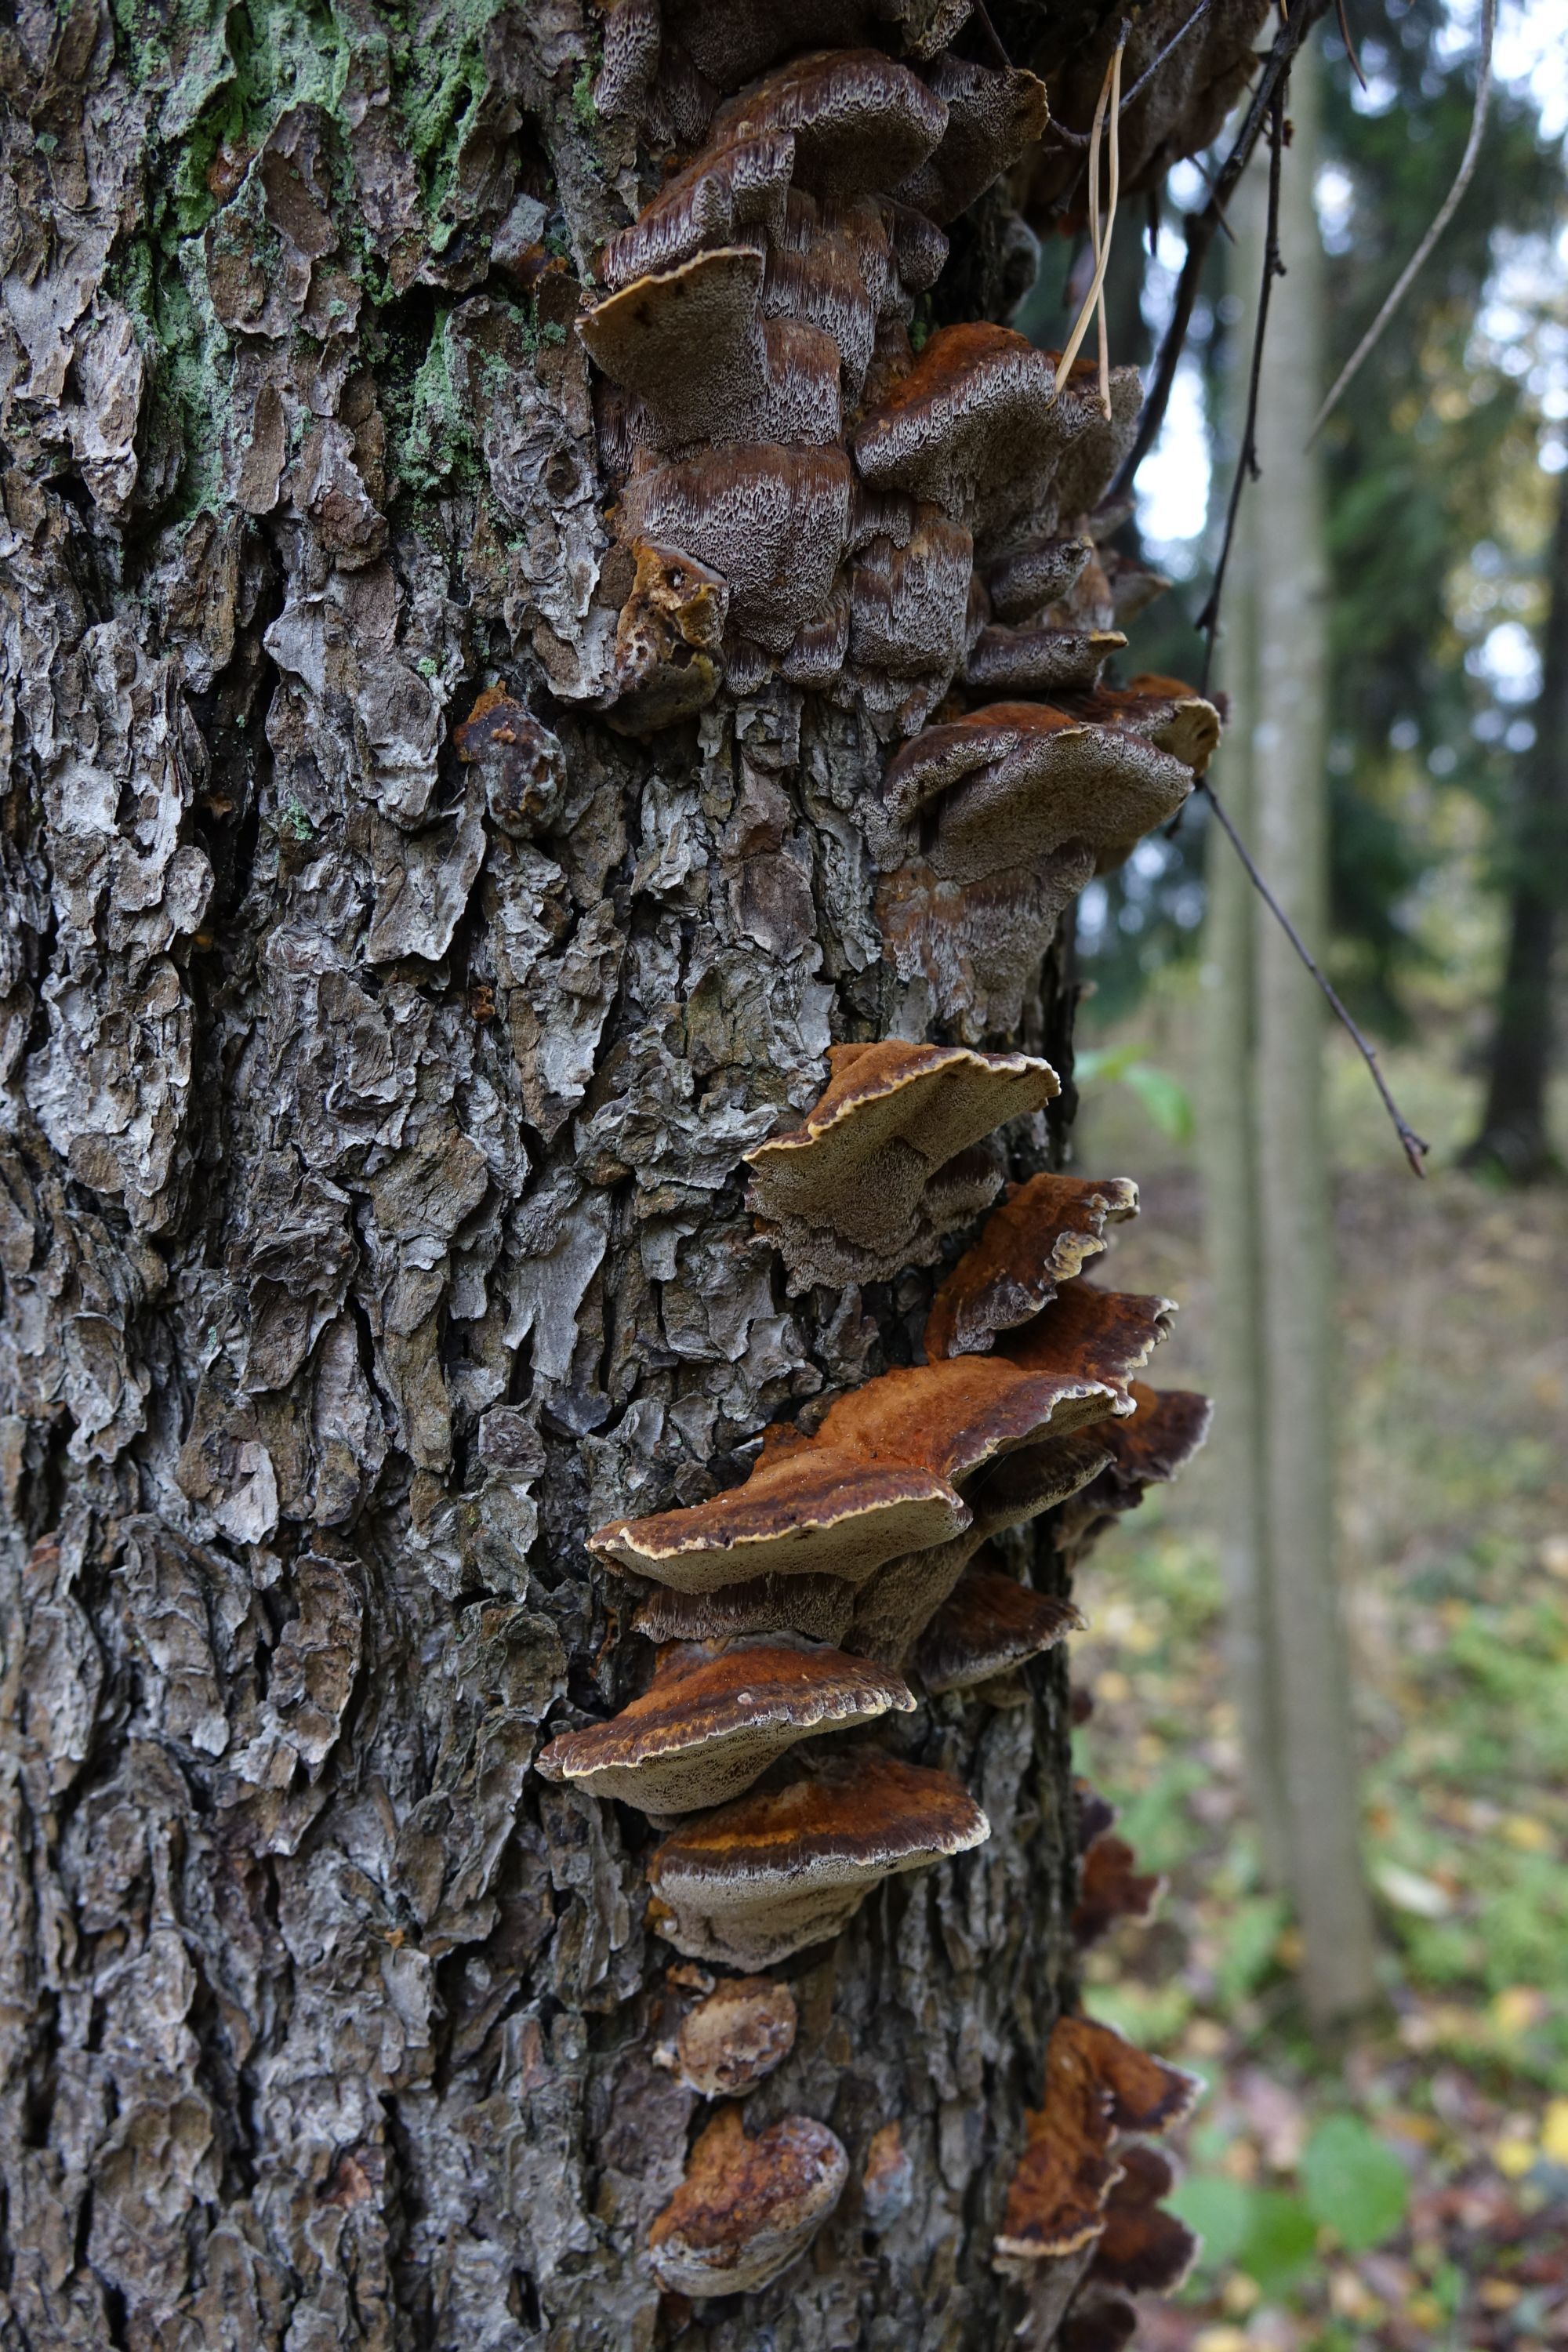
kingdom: Fungi
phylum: Basidiomycota
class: Agaricomycetes
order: Hymenochaetales
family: Hymenochaetaceae
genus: Xanthoporia
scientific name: Xanthoporia radiata
